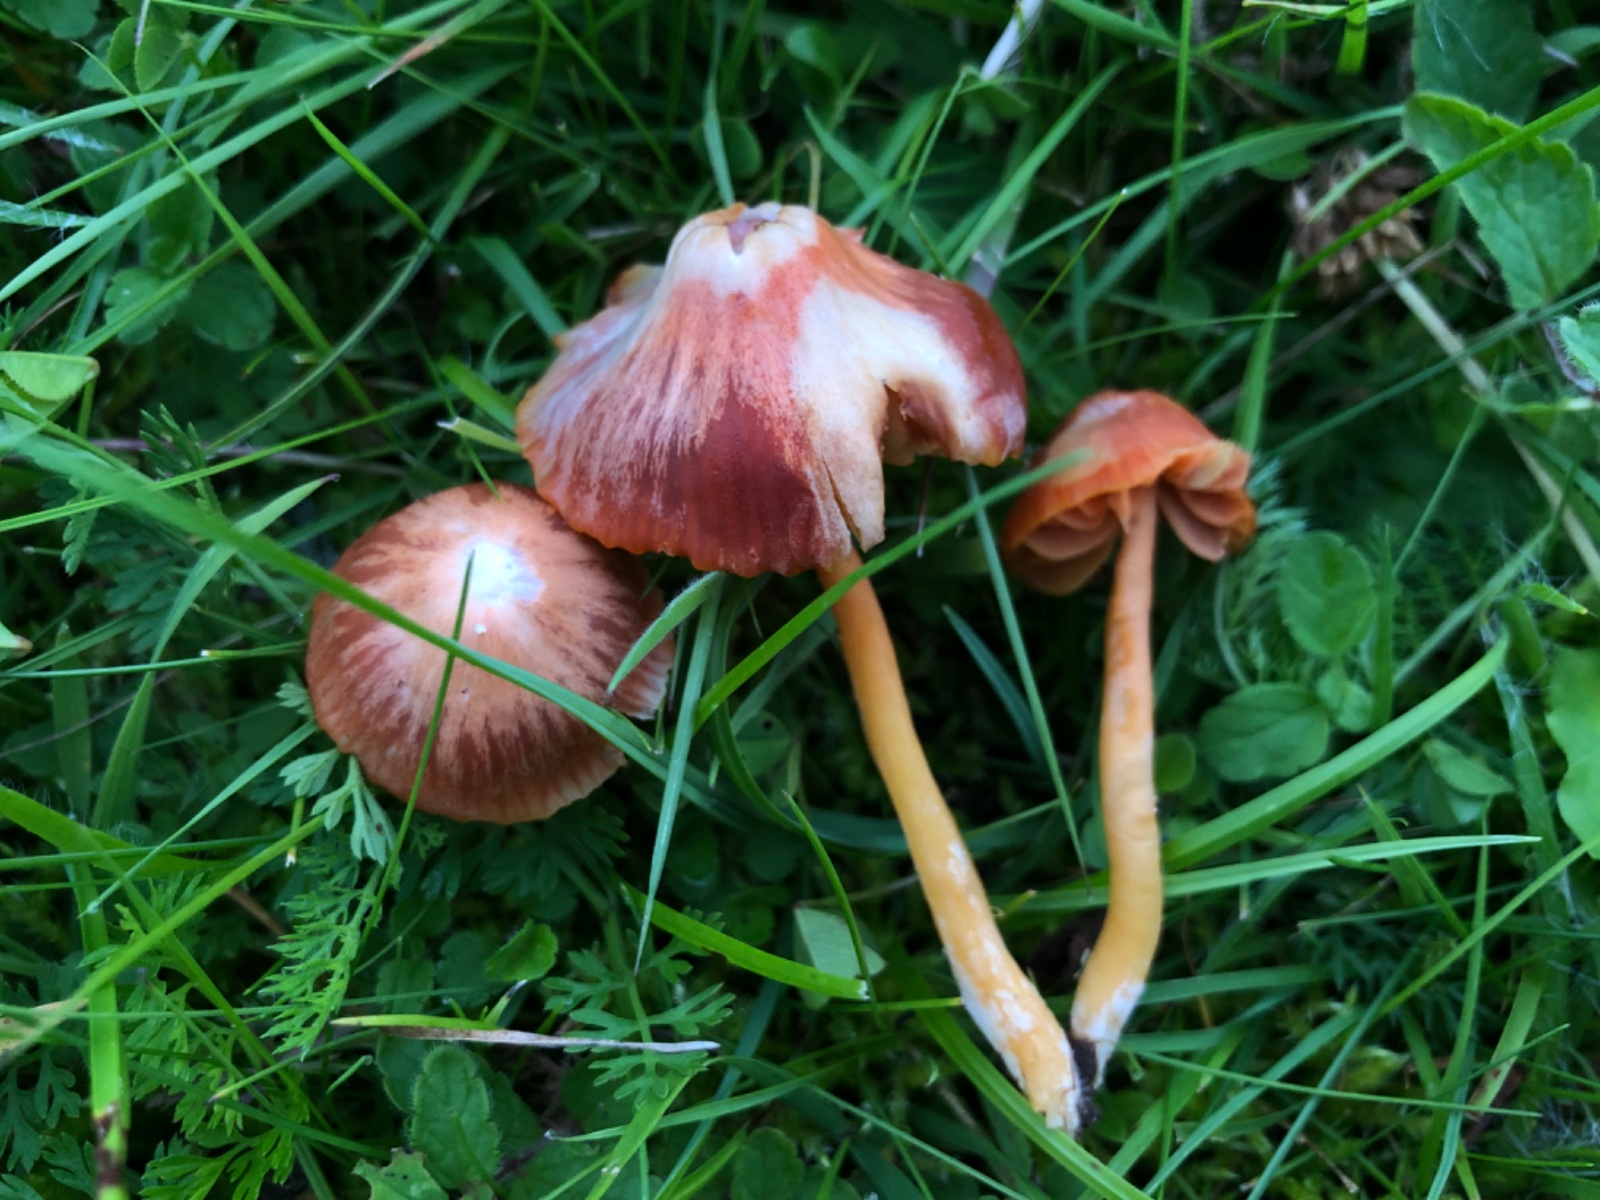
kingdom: Fungi
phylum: Basidiomycota
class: Agaricomycetes
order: Agaricales
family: Hygrophoraceae
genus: Gliophorus
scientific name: Gliophorus
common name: vokshat
